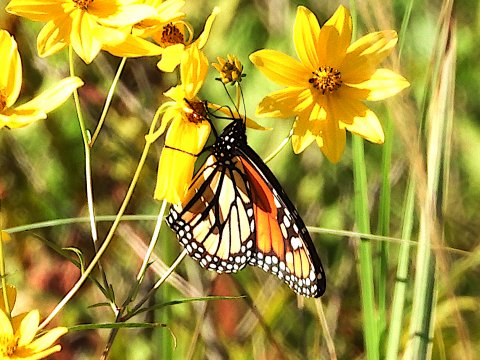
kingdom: Animalia
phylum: Arthropoda
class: Insecta
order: Lepidoptera
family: Nymphalidae
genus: Danaus
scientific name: Danaus plexippus
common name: Monarch
